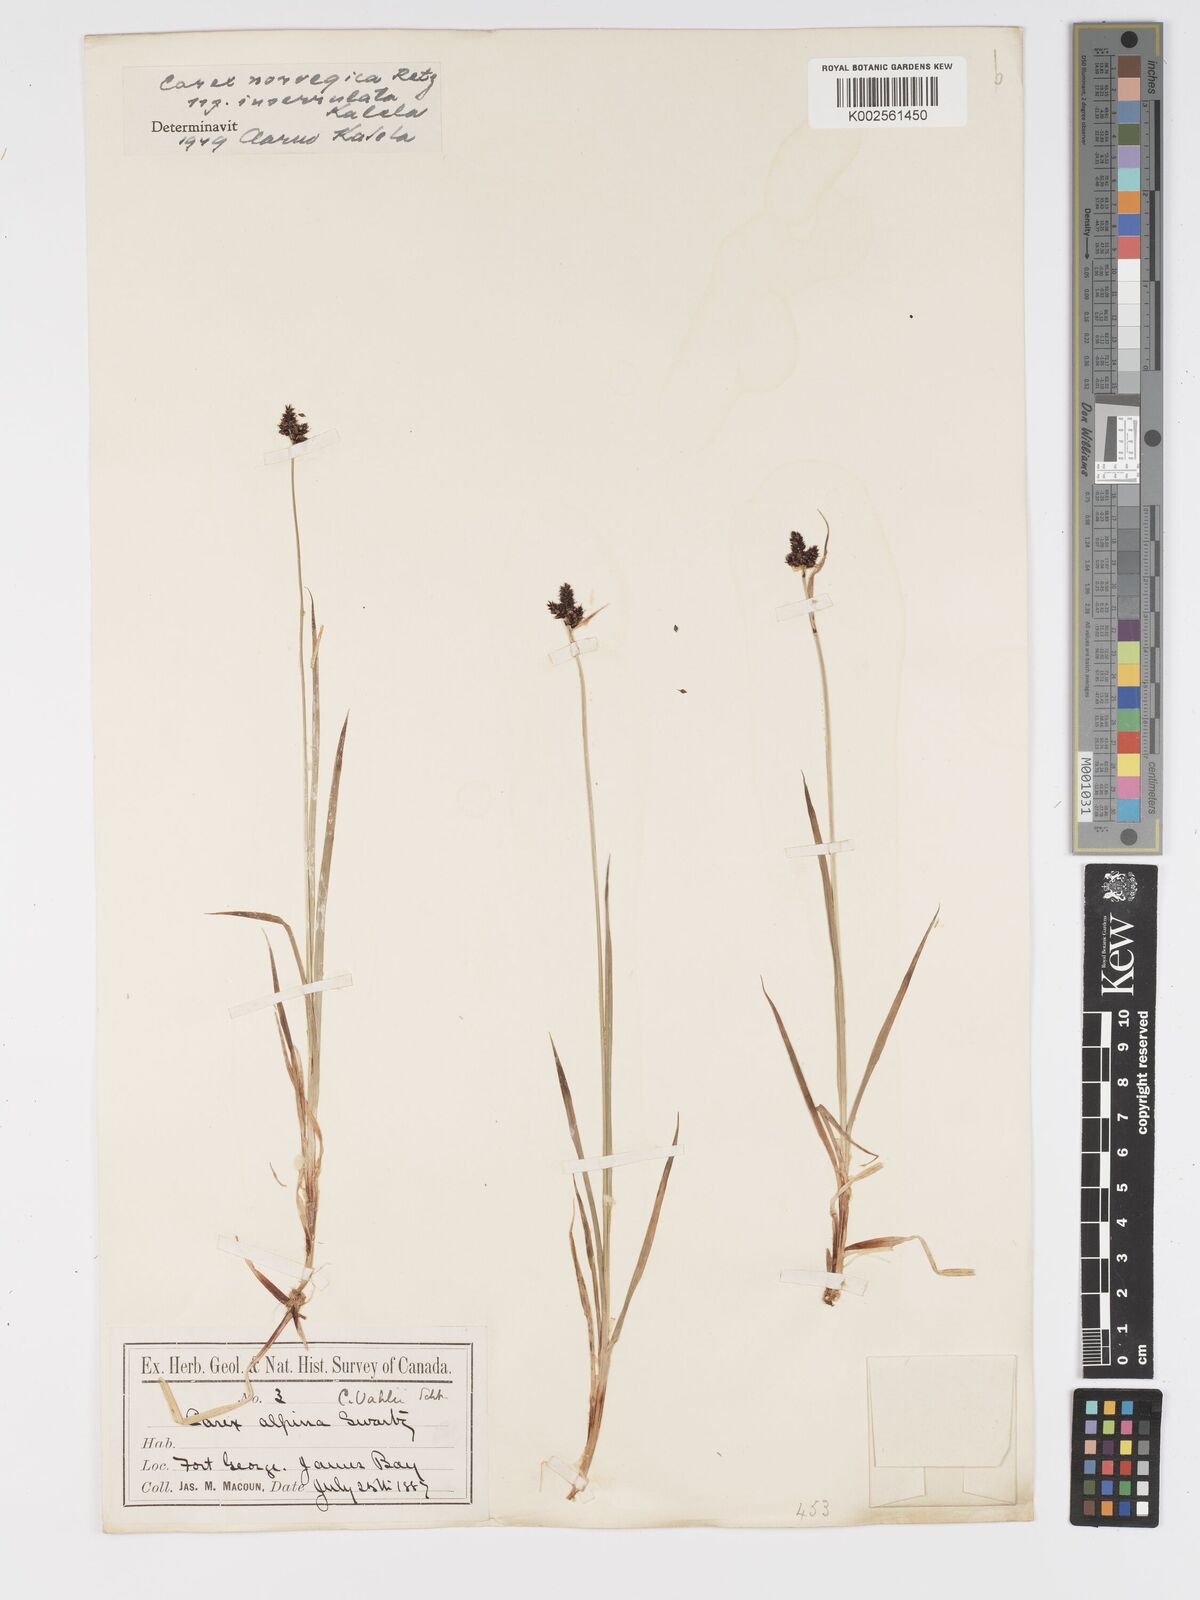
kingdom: Plantae
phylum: Tracheophyta
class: Liliopsida
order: Poales
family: Cyperaceae
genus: Carex
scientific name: Carex norvegica
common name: Close-headed alpine-sedge
